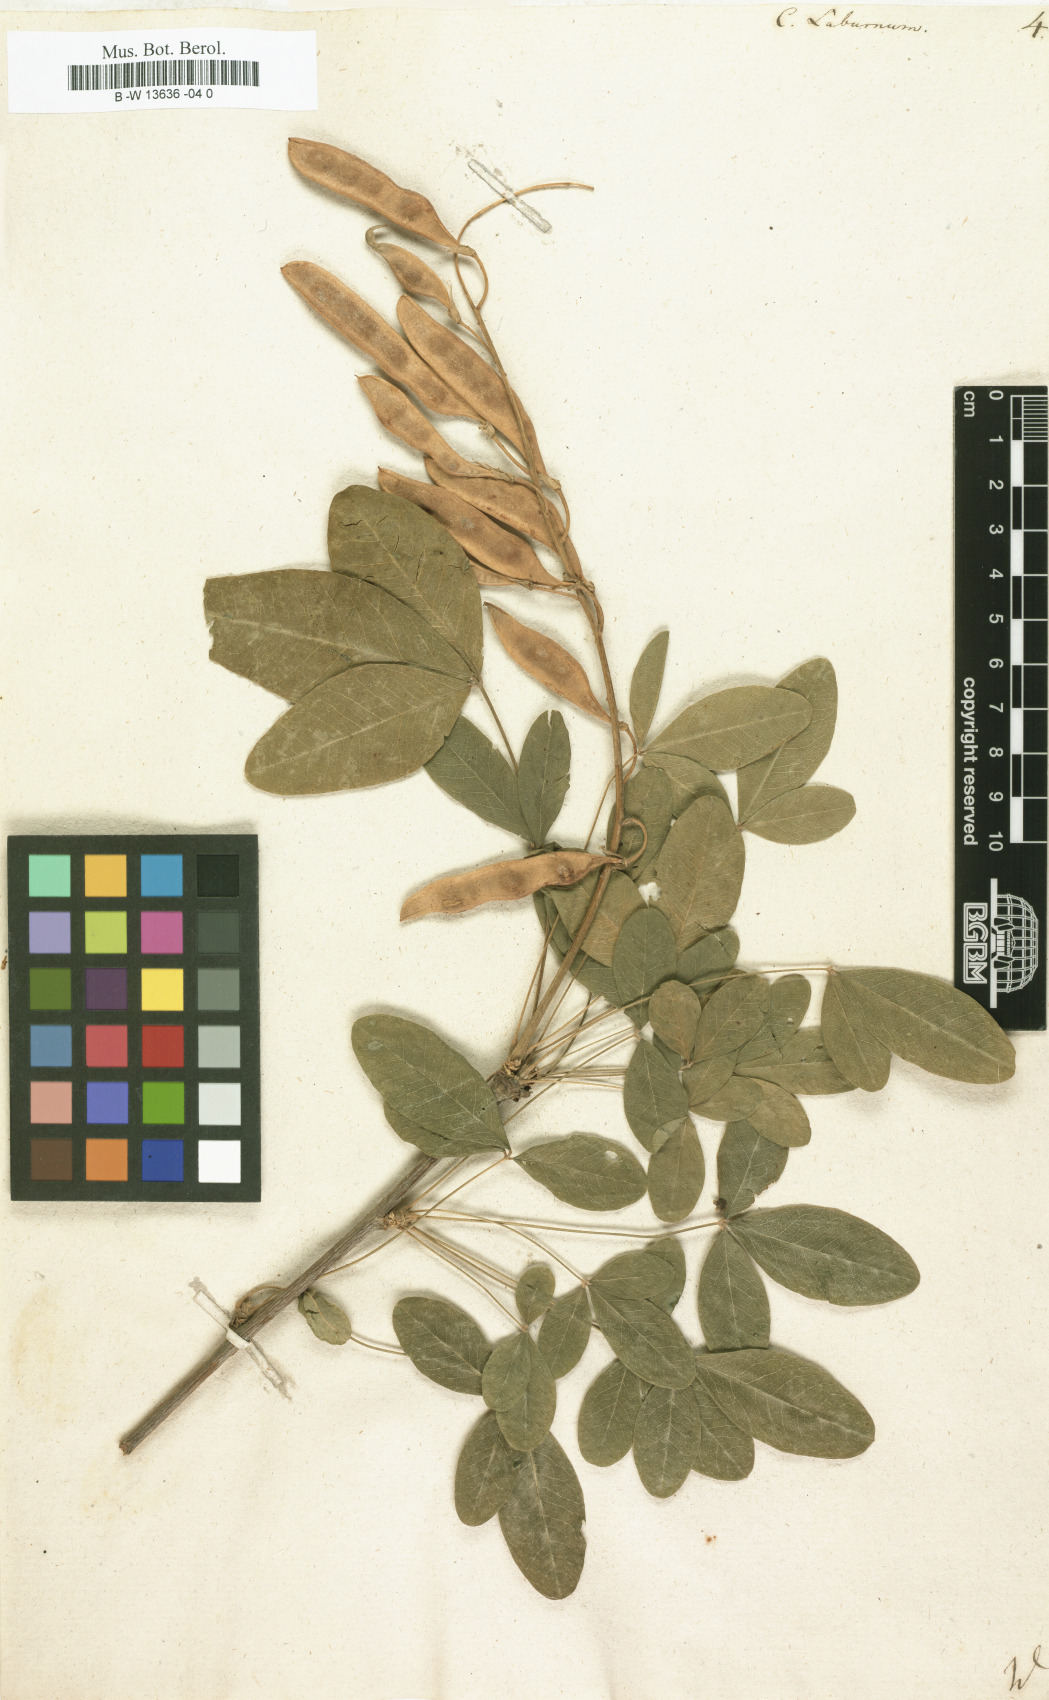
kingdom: Plantae
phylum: Tracheophyta
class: Magnoliopsida
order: Fabales
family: Fabaceae
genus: Laburnum
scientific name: Laburnum anagyroides
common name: Laburnum
